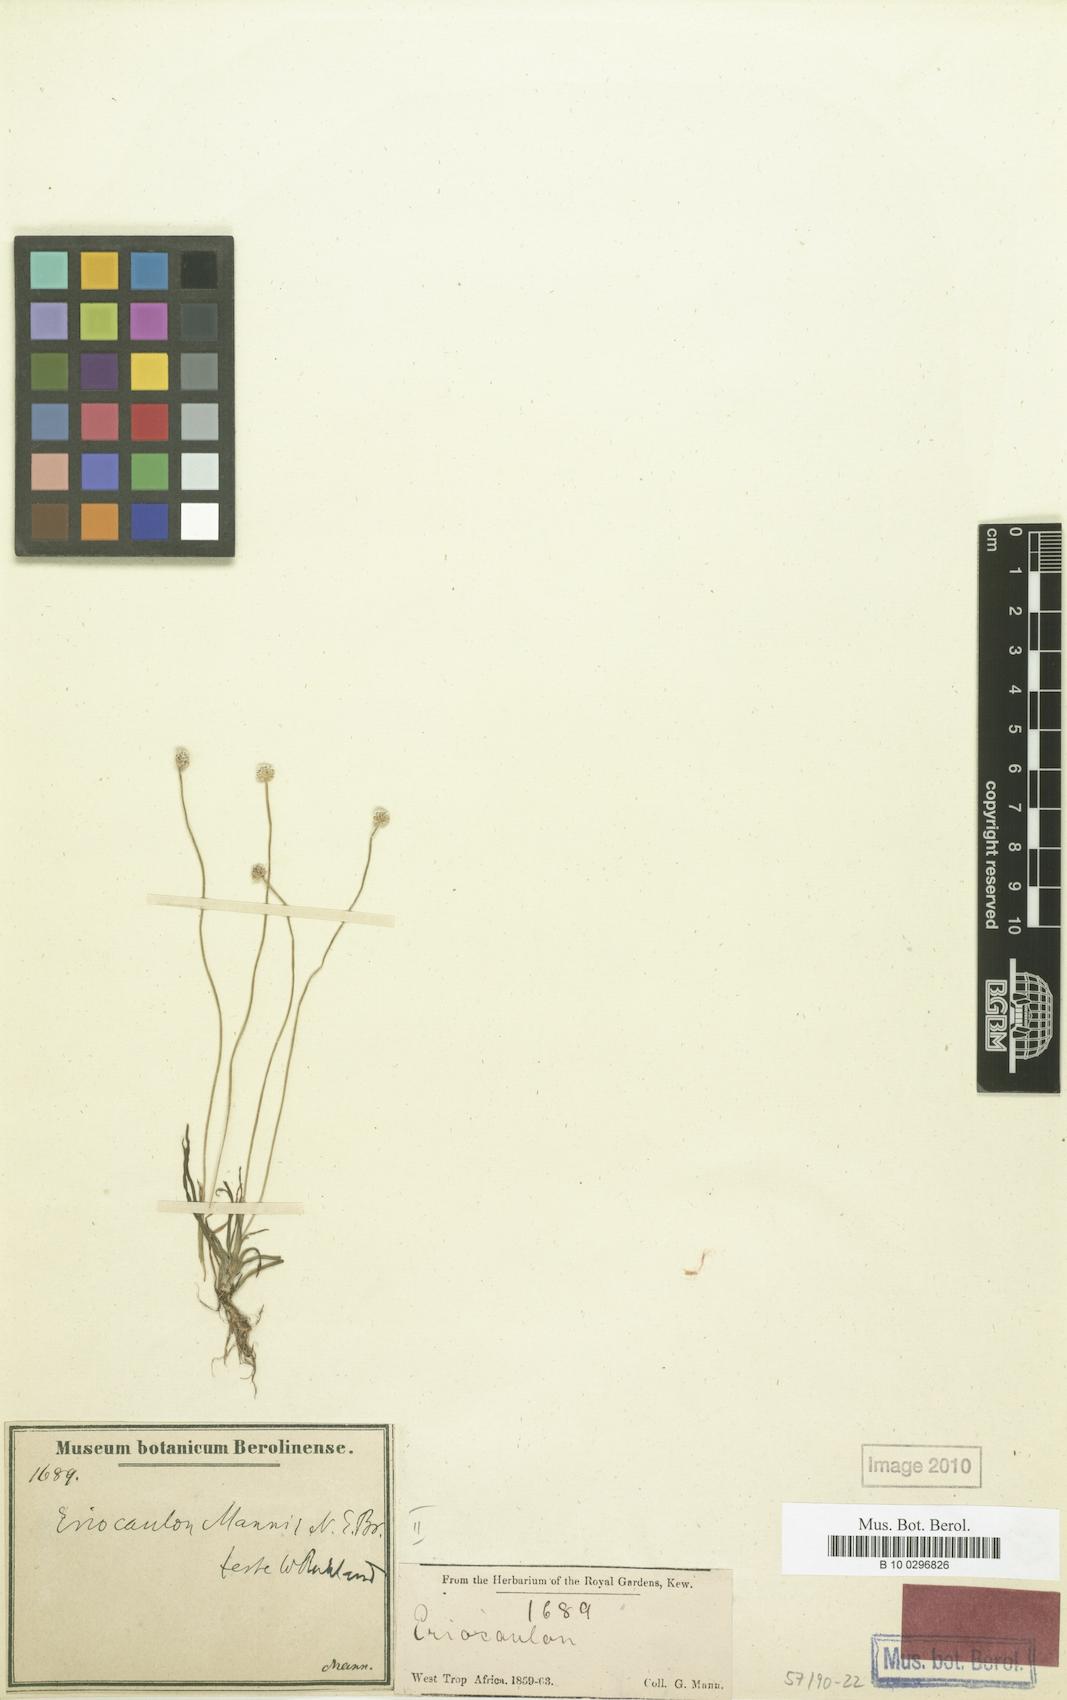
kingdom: Plantae
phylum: Tracheophyta
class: Liliopsida
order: Poales
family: Eriocaulaceae
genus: Eriocaulon
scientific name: Eriocaulon mannii
